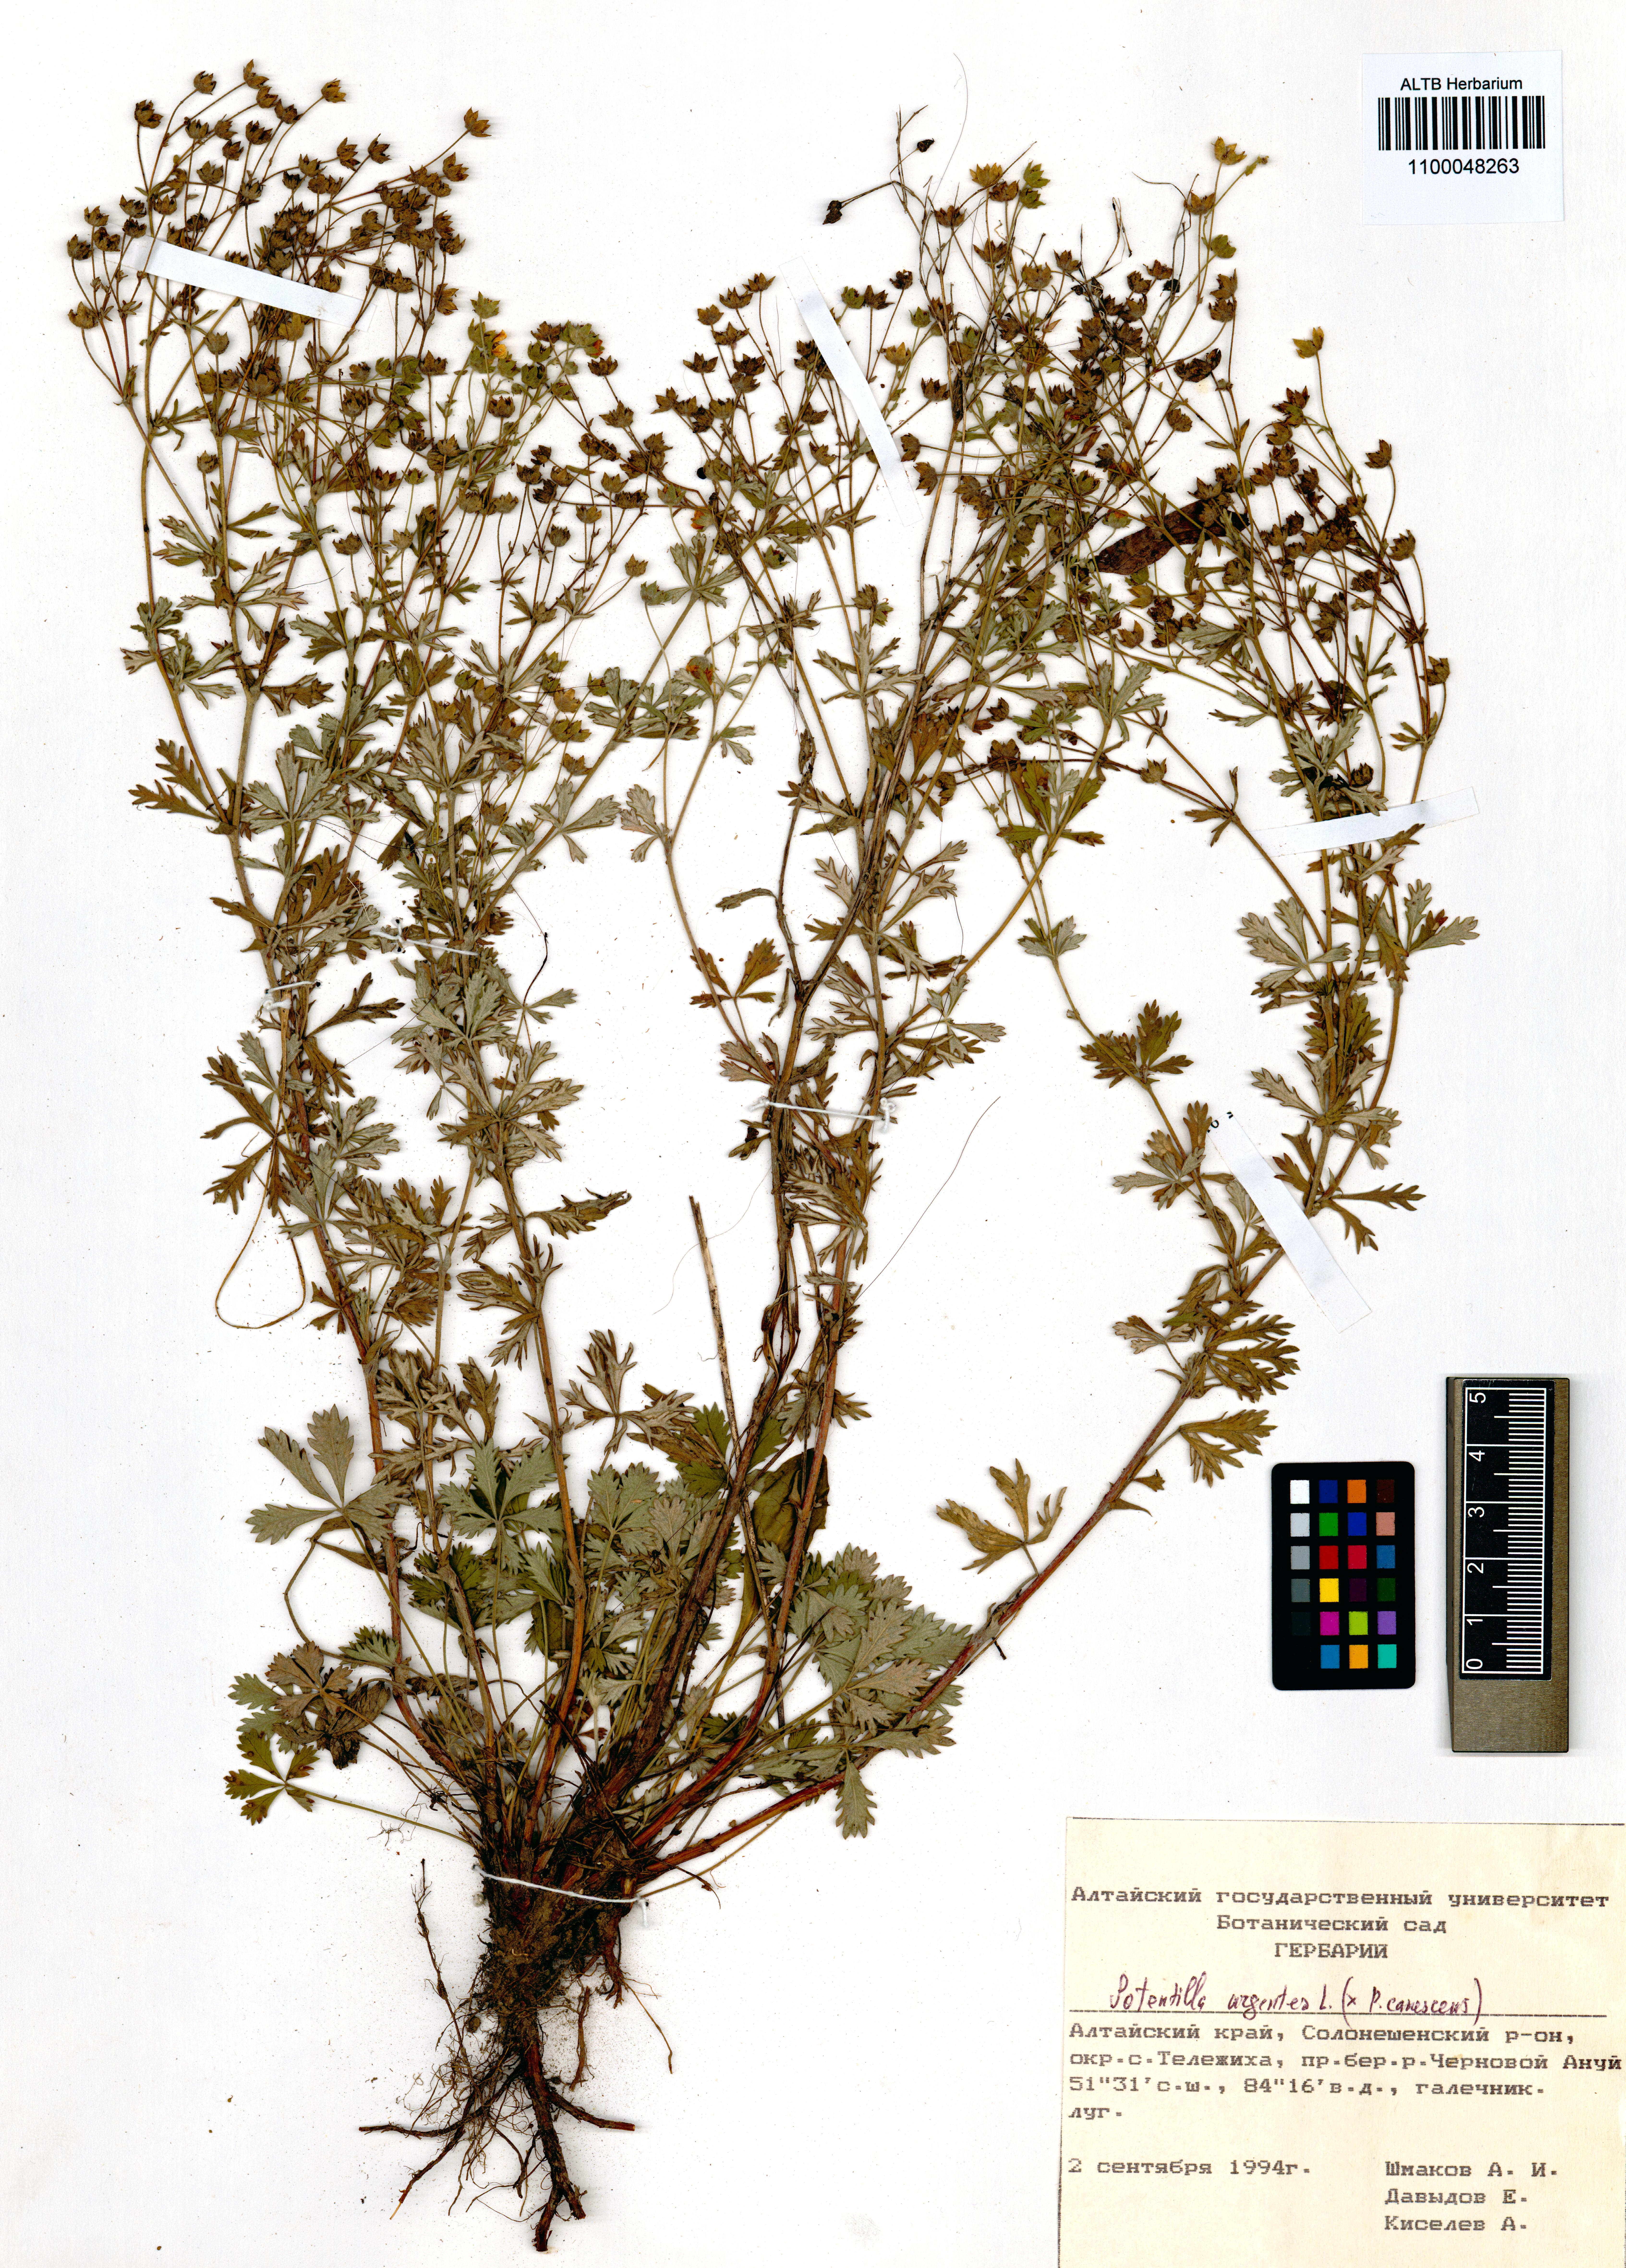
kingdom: Plantae
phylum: Tracheophyta
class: Magnoliopsida
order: Rosales
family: Rosaceae
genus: Potentilla
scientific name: Potentilla argentea
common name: Hoary cinquefoil
